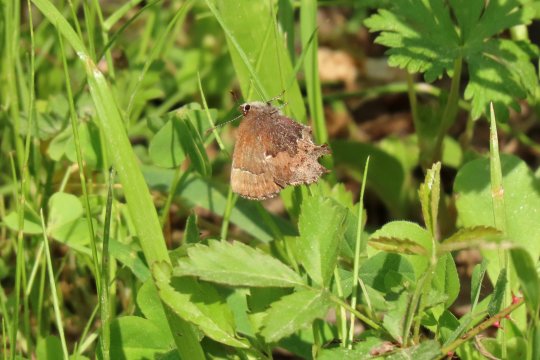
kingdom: Animalia
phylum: Arthropoda
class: Insecta
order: Lepidoptera
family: Lycaenidae
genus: Incisalia
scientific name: Incisalia henrici
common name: Henry's Elfin
